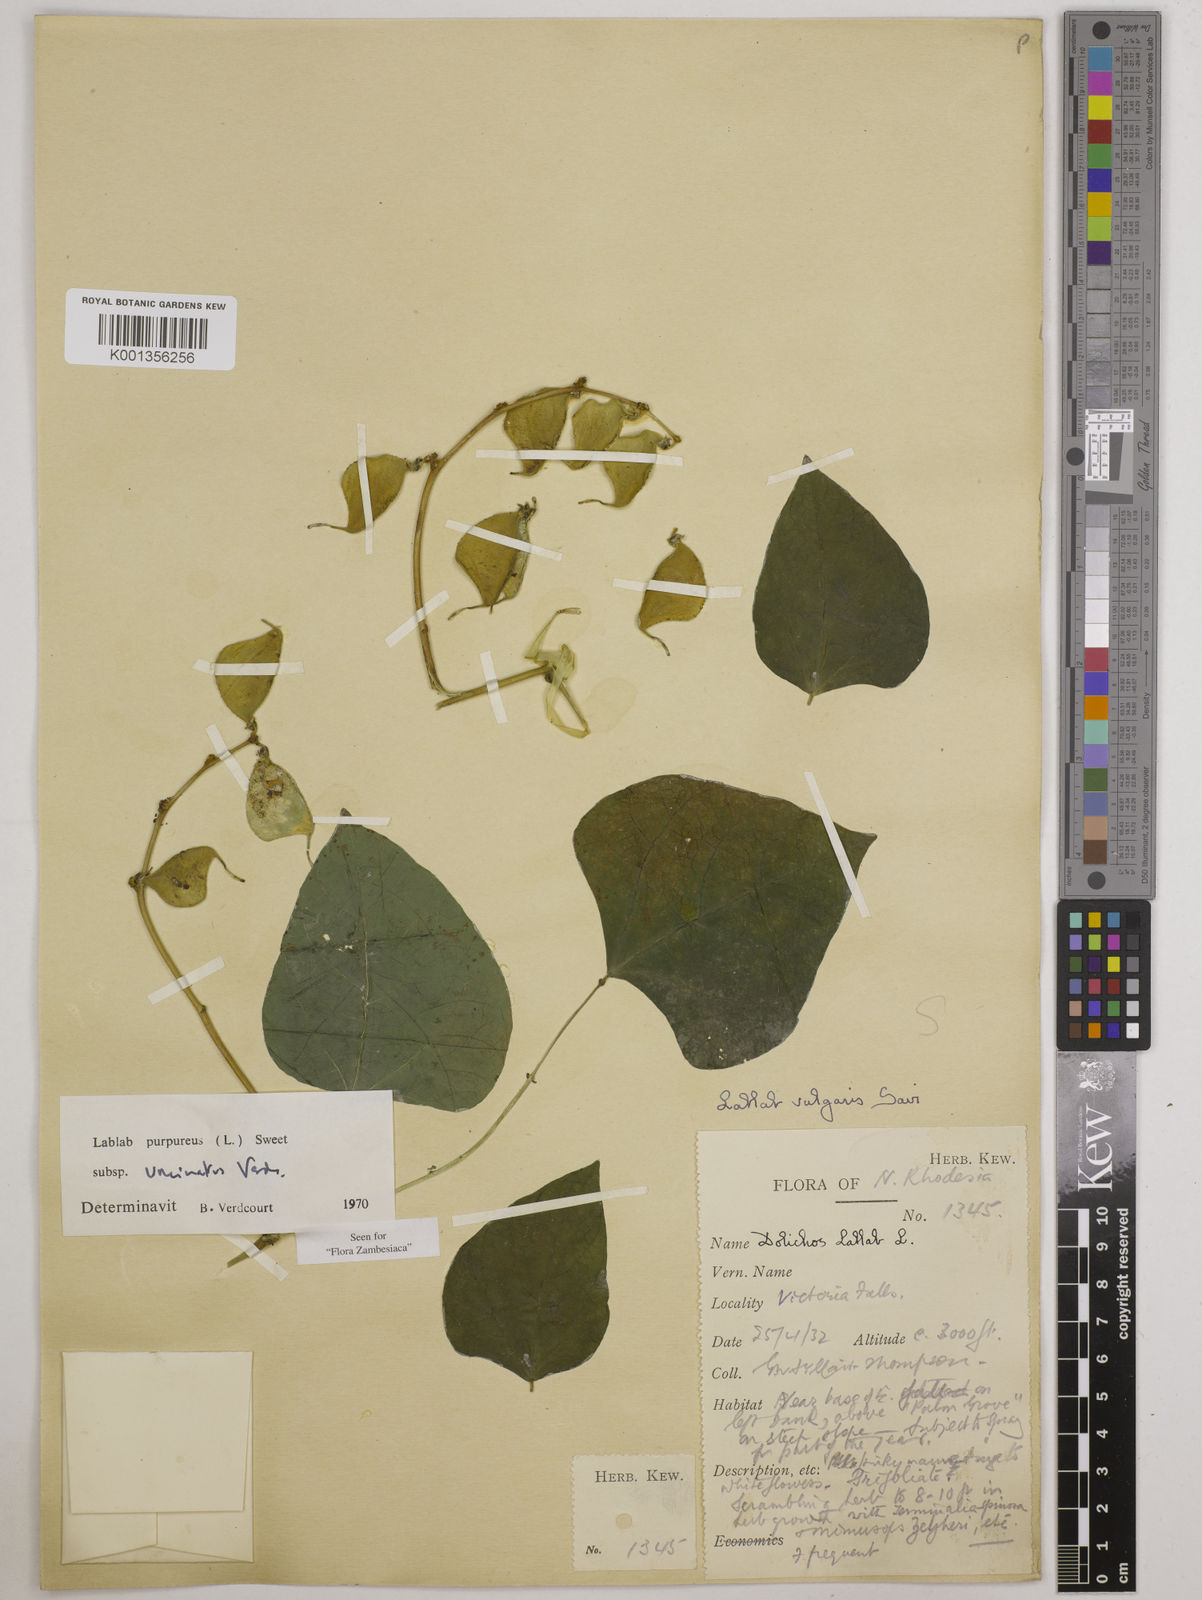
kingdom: Plantae
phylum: Tracheophyta
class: Magnoliopsida
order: Fabales
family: Fabaceae
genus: Lablab
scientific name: Lablab purpureus
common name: Lablab-bean
